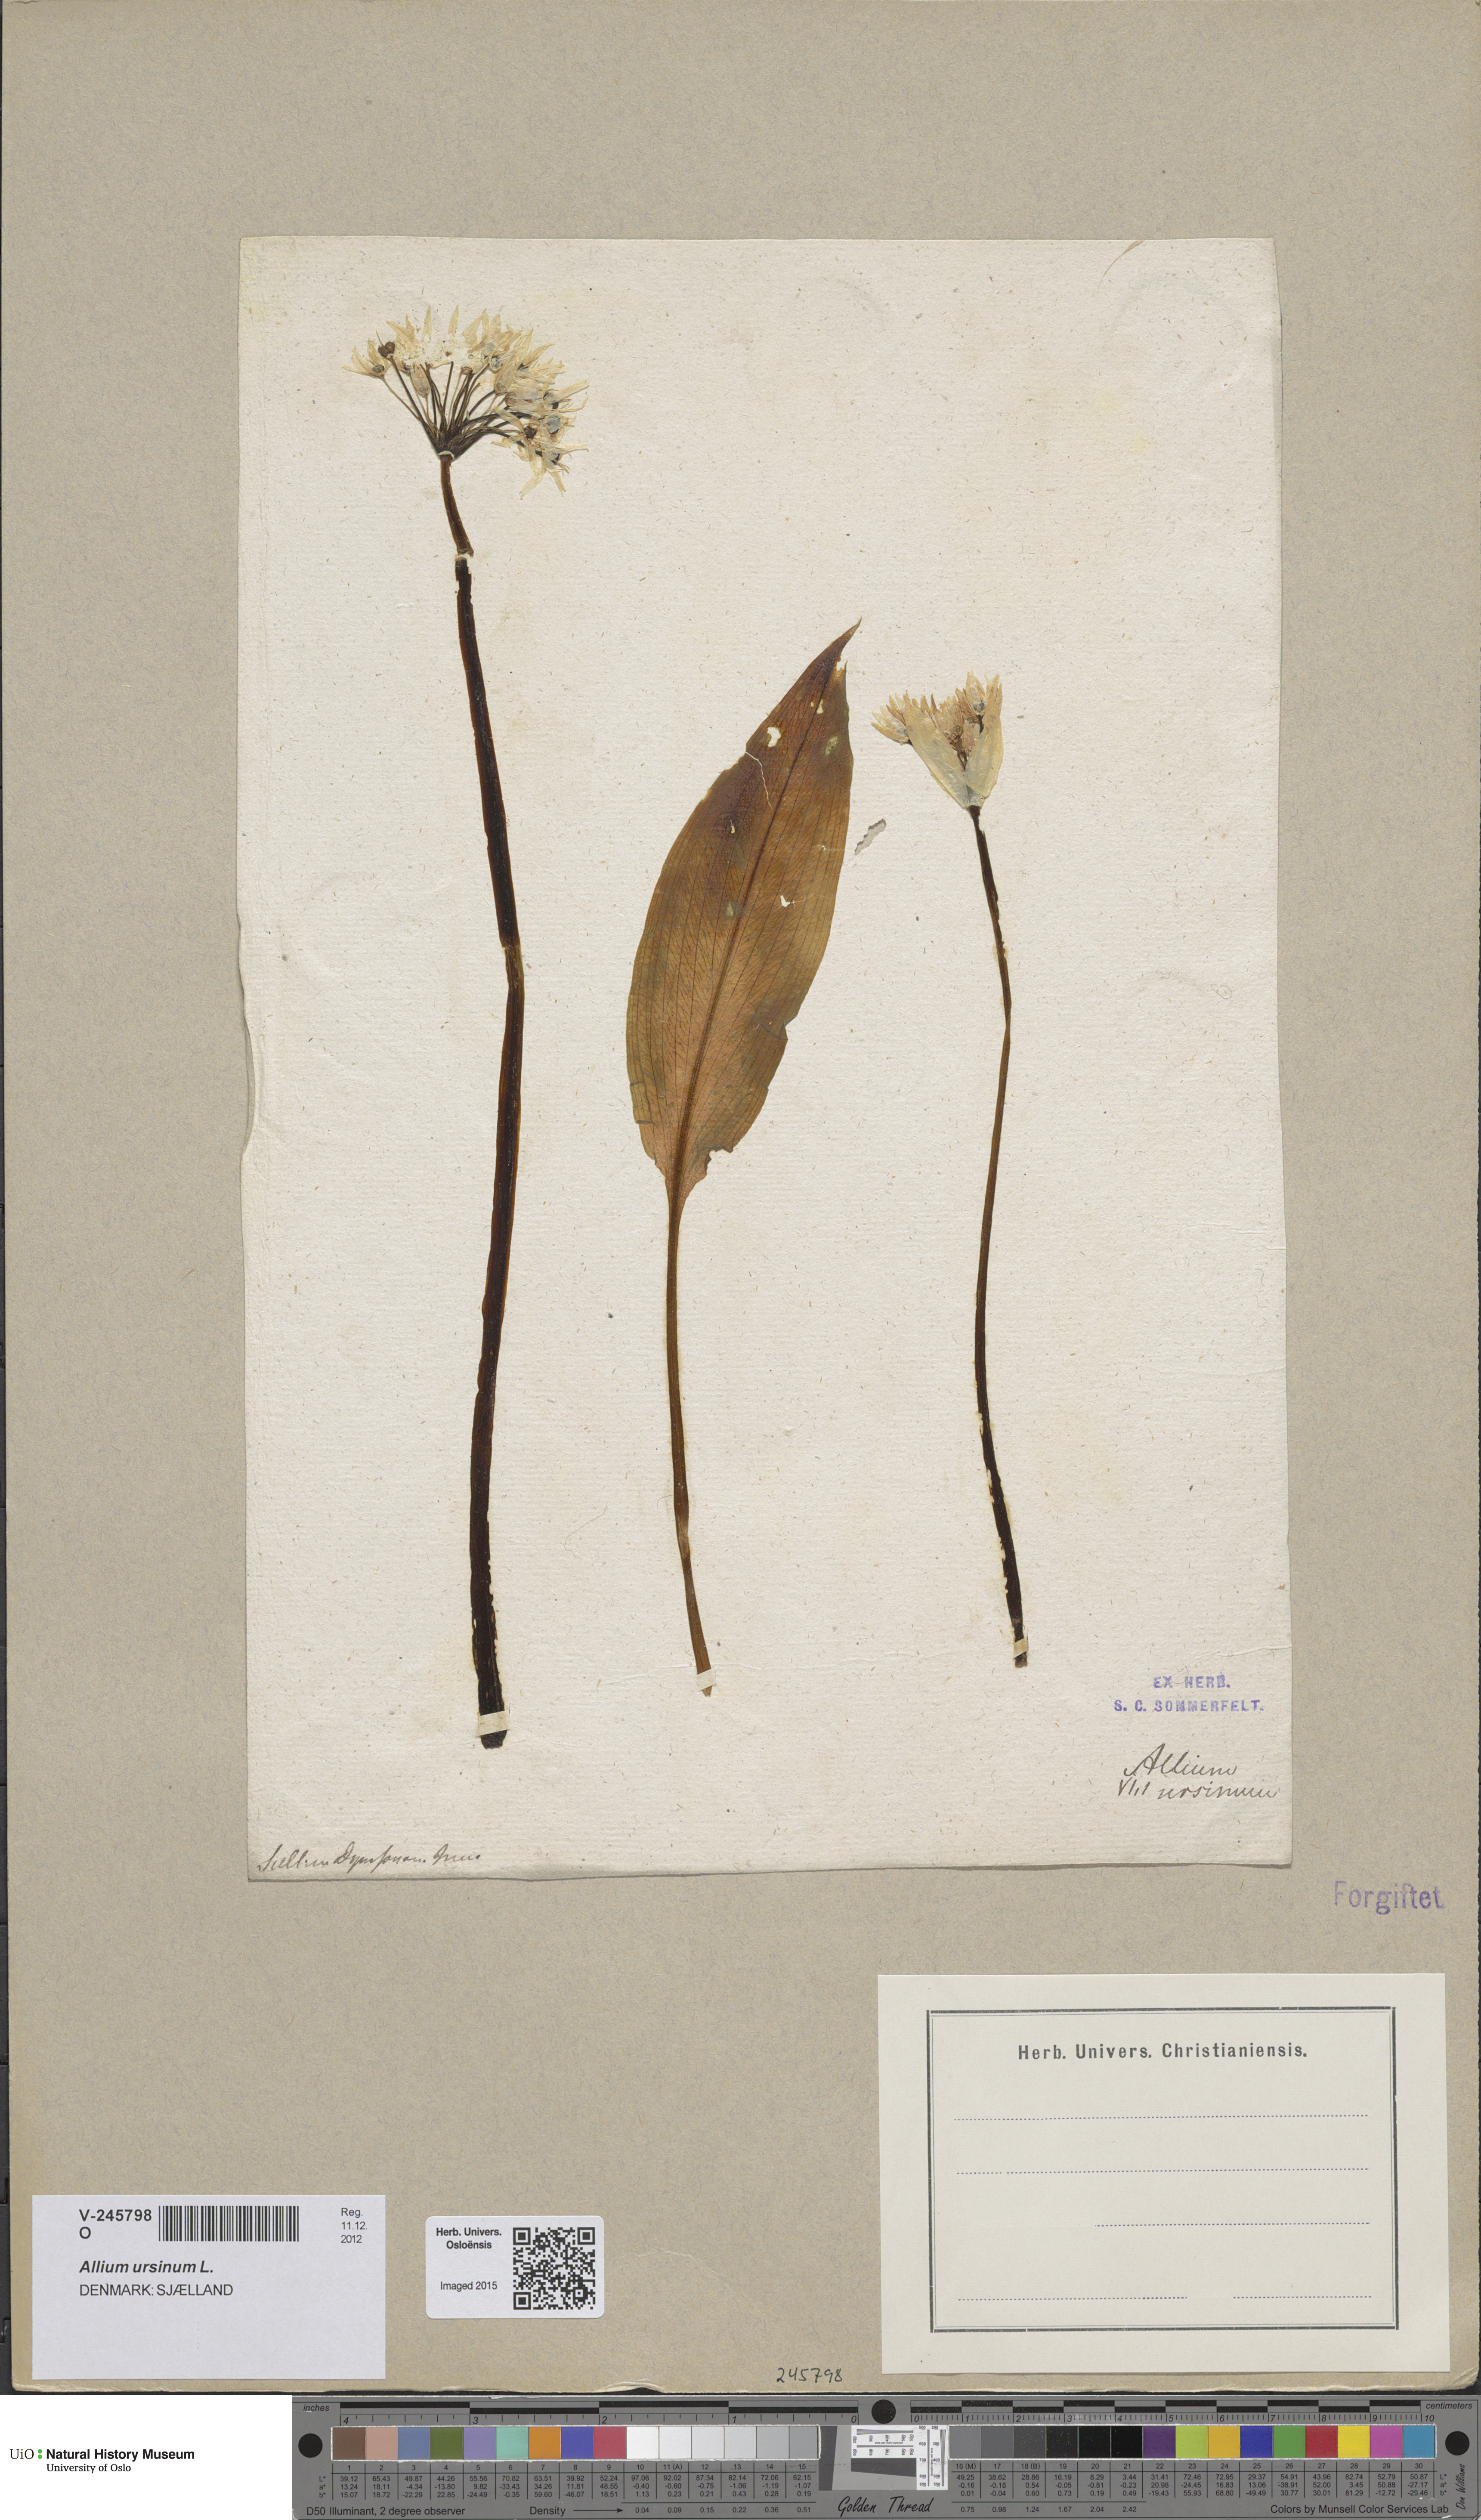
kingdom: Plantae
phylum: Tracheophyta
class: Liliopsida
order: Asparagales
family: Amaryllidaceae
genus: Allium
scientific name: Allium ursinum
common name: Ramsons
